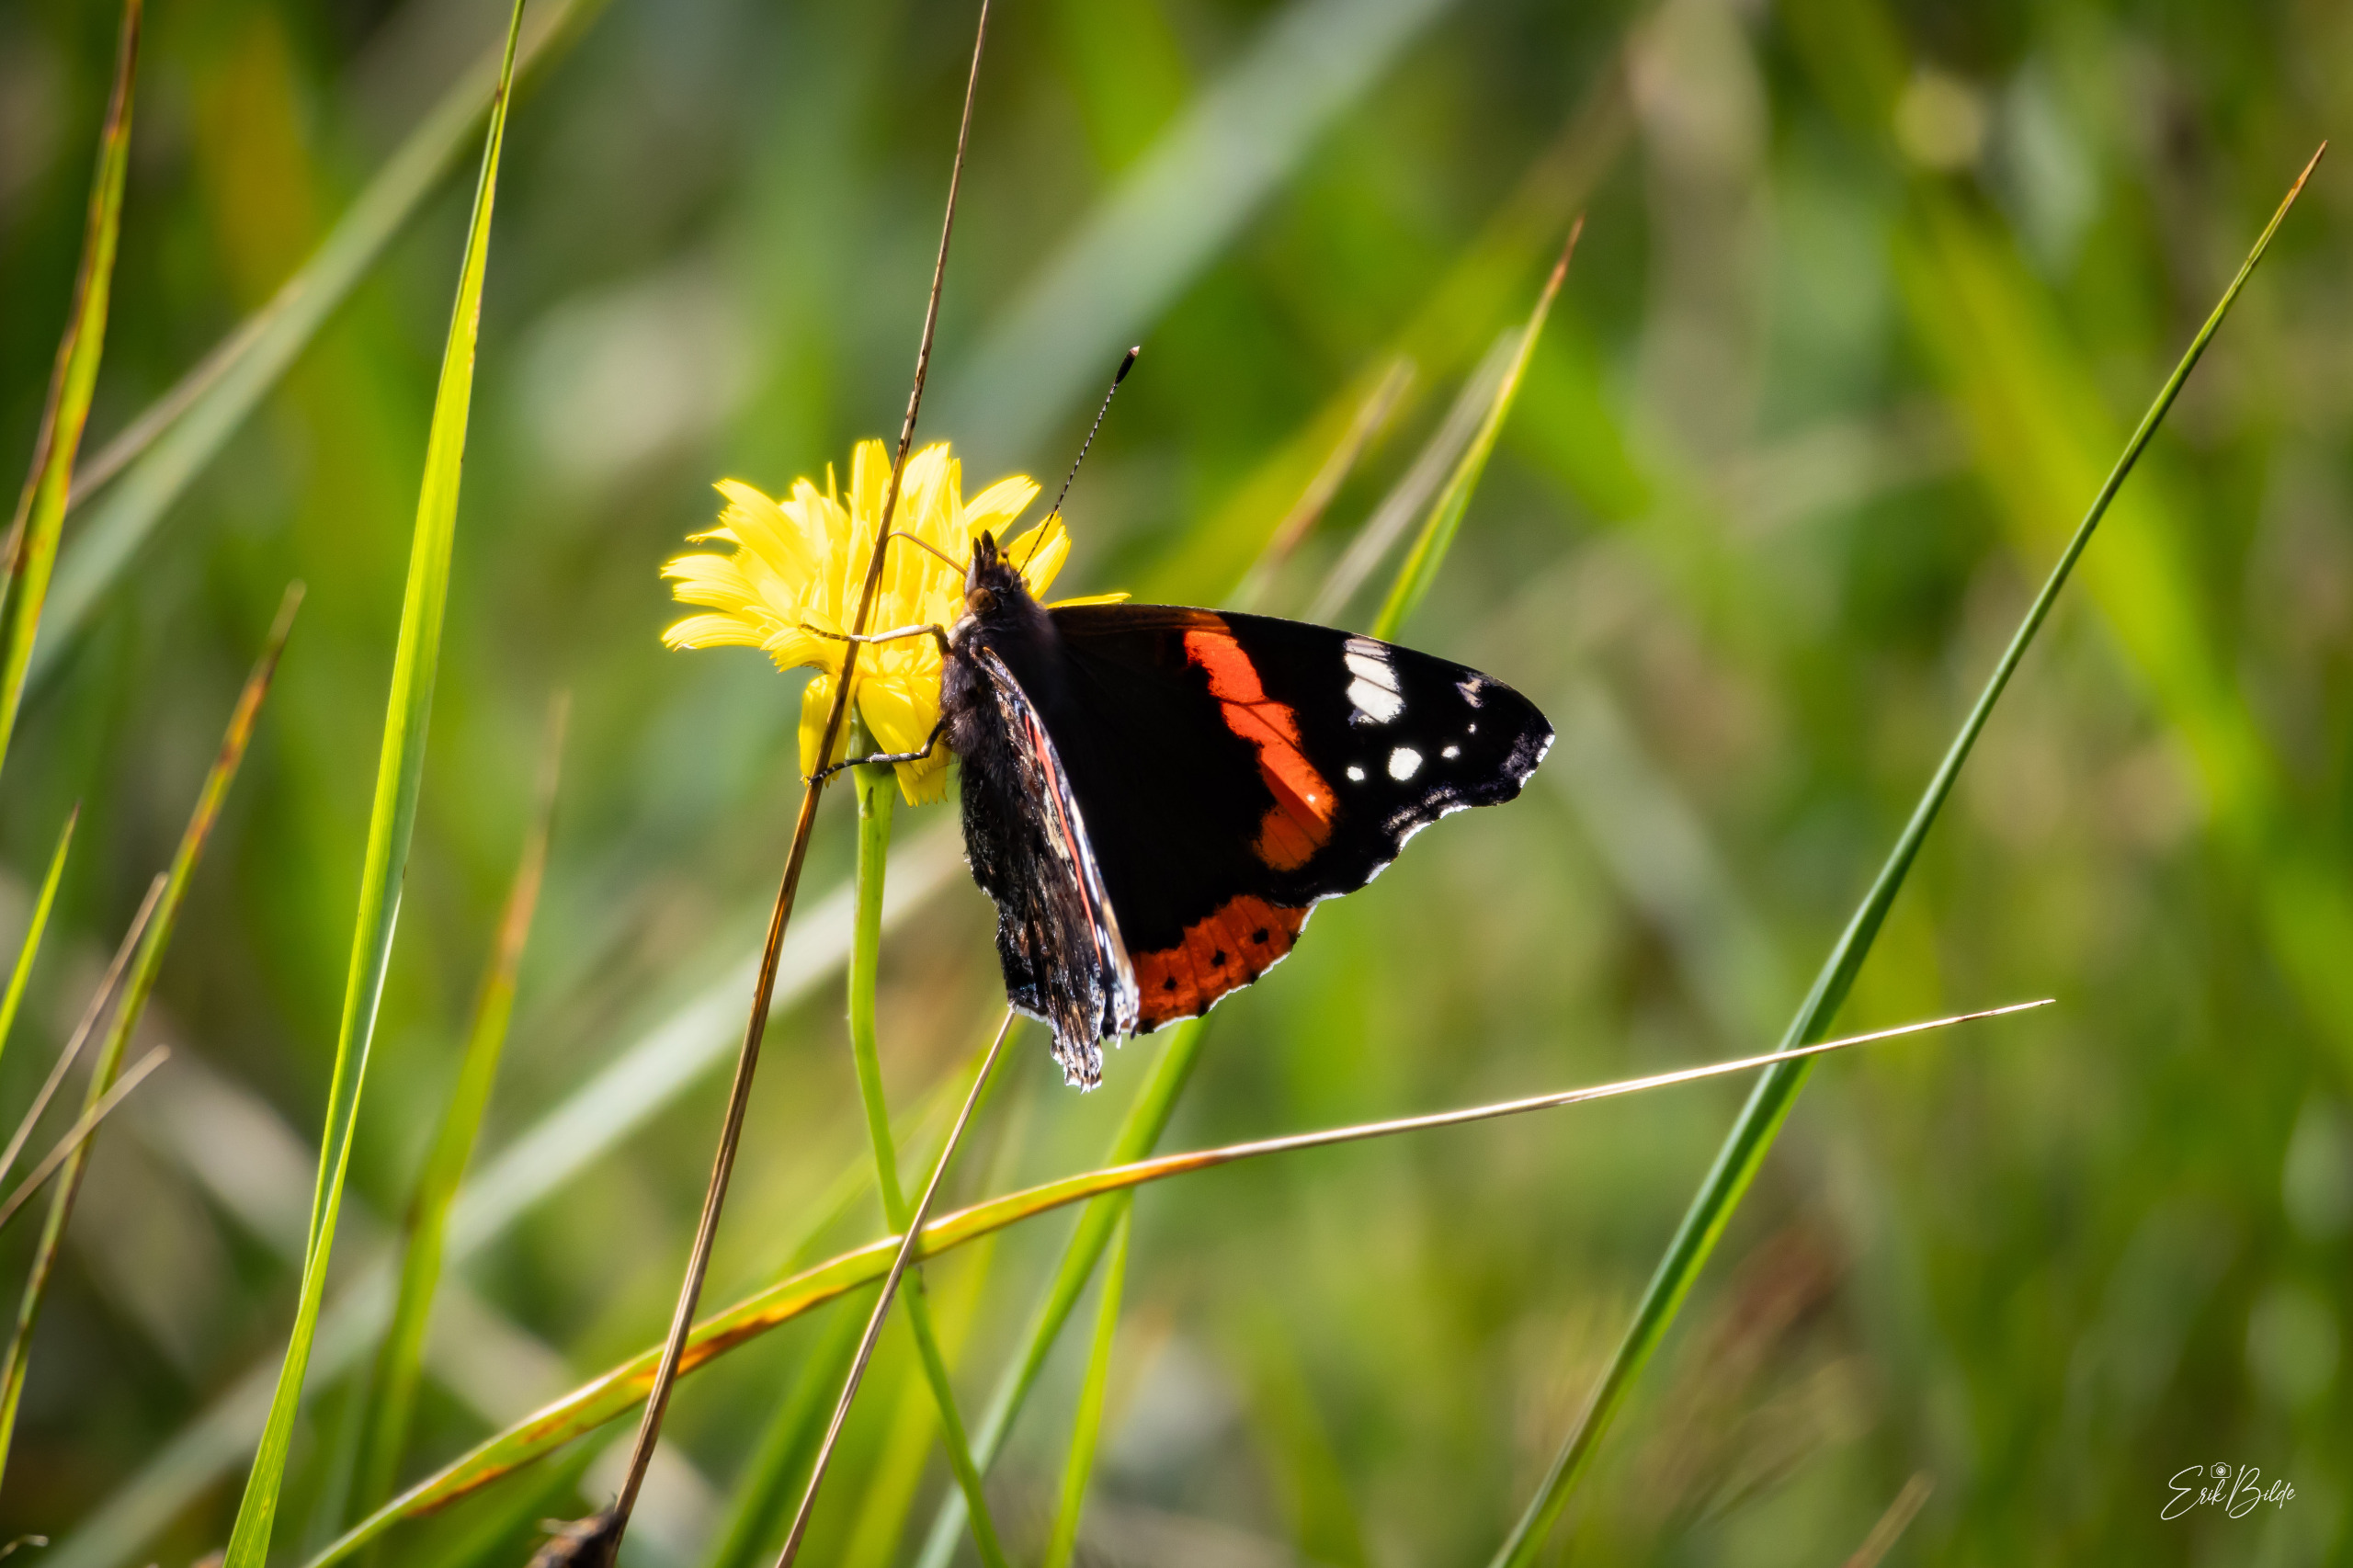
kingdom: Animalia
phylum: Arthropoda
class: Insecta
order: Lepidoptera
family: Nymphalidae
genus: Vanessa
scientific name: Vanessa atalanta
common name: Admiral
